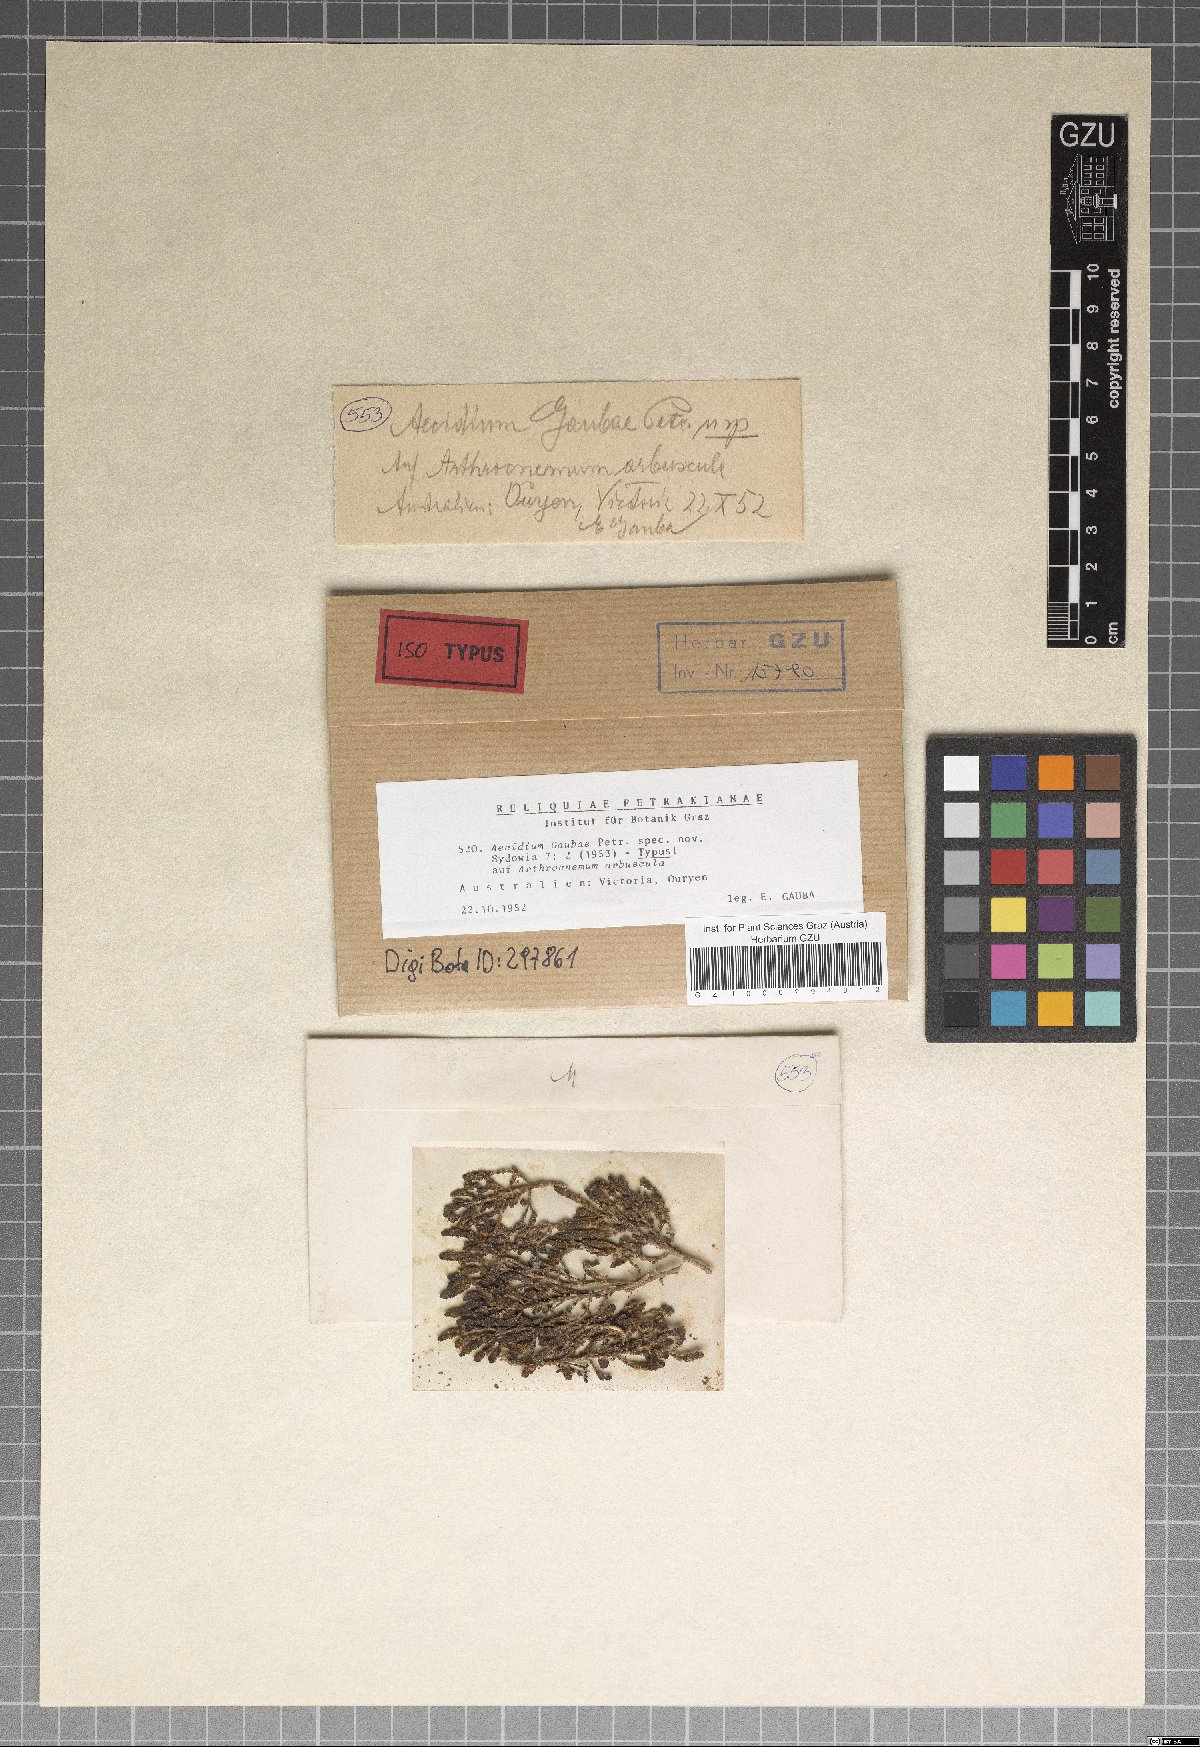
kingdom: Fungi
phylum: Basidiomycota
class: Pucciniomycetes
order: Pucciniales
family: Pucciniaceae
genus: Aecidium
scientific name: Aecidium gaubae
